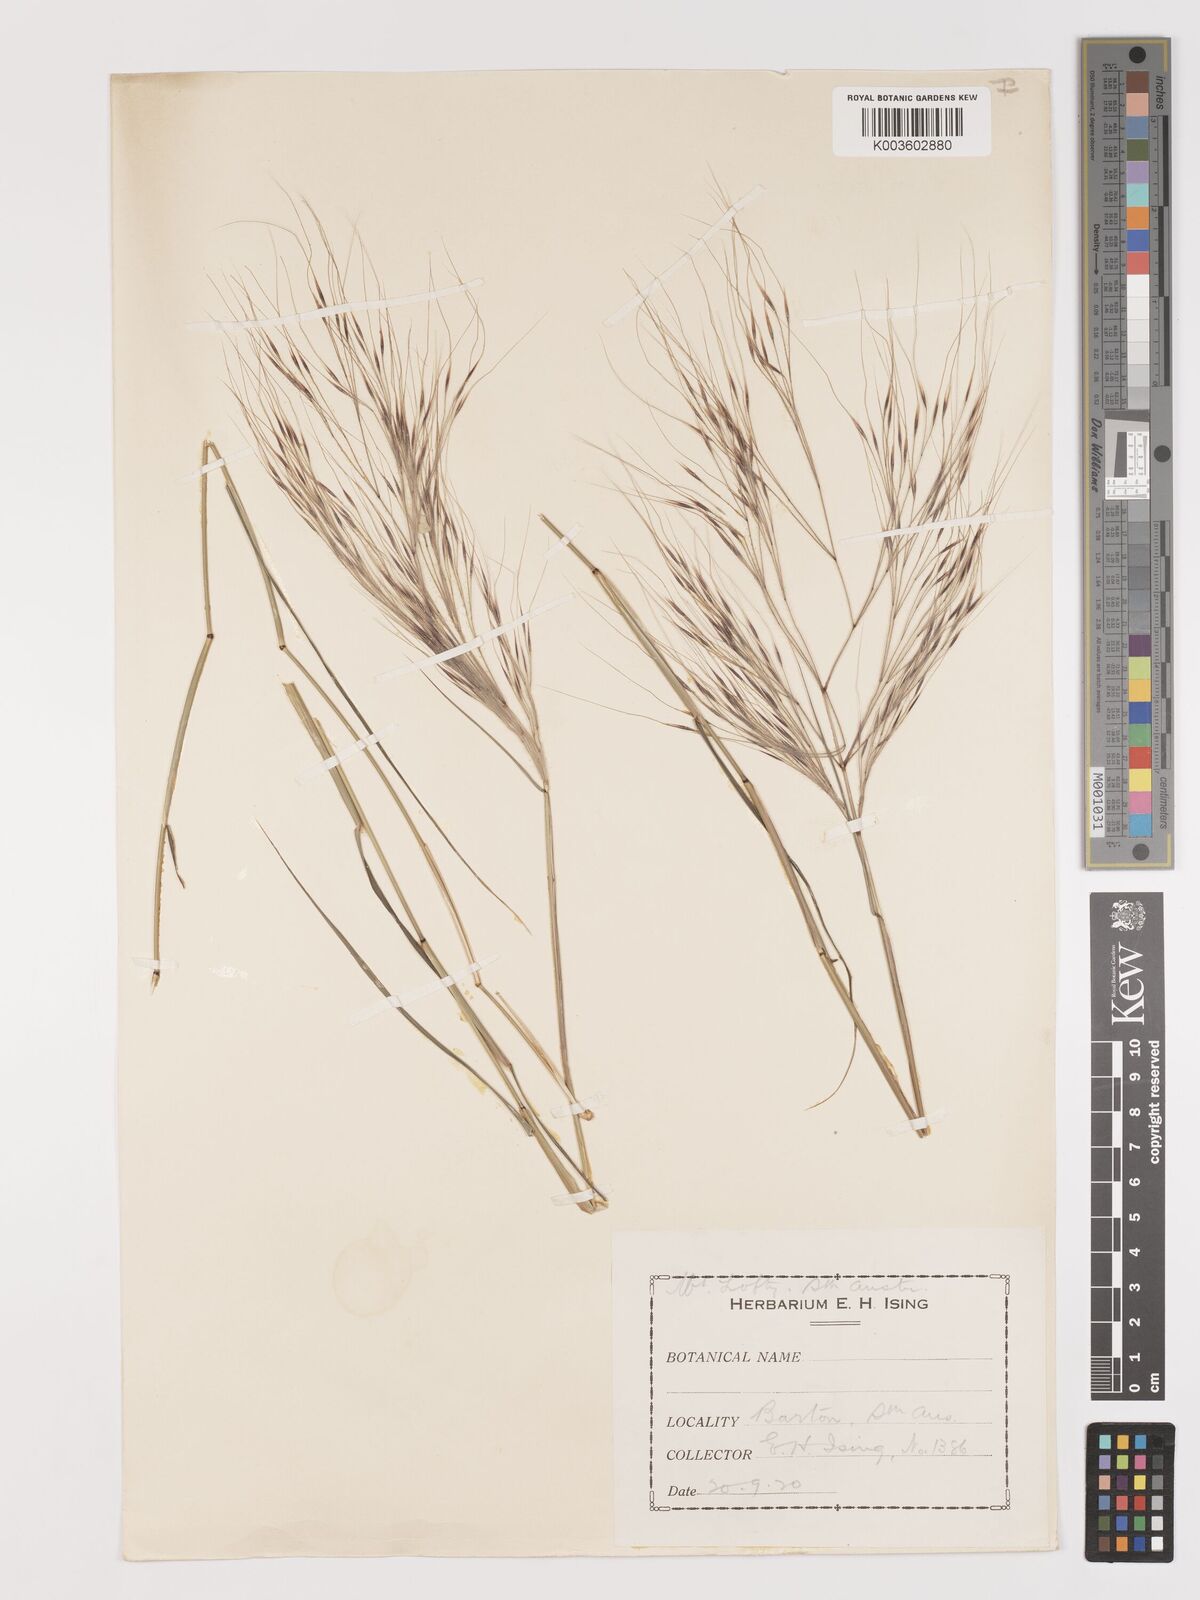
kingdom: Plantae
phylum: Tracheophyta
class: Liliopsida
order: Poales
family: Poaceae
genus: Austrostipa
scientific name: Austrostipa elegantissima
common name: Feather spear grass
